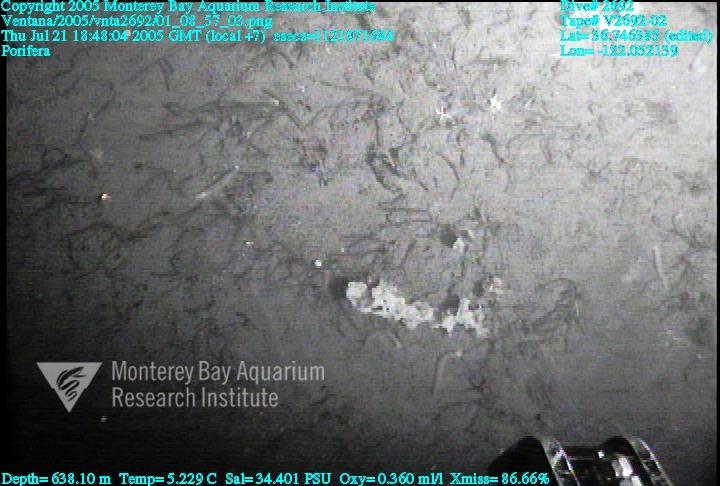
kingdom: Animalia
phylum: Porifera
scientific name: Porifera
